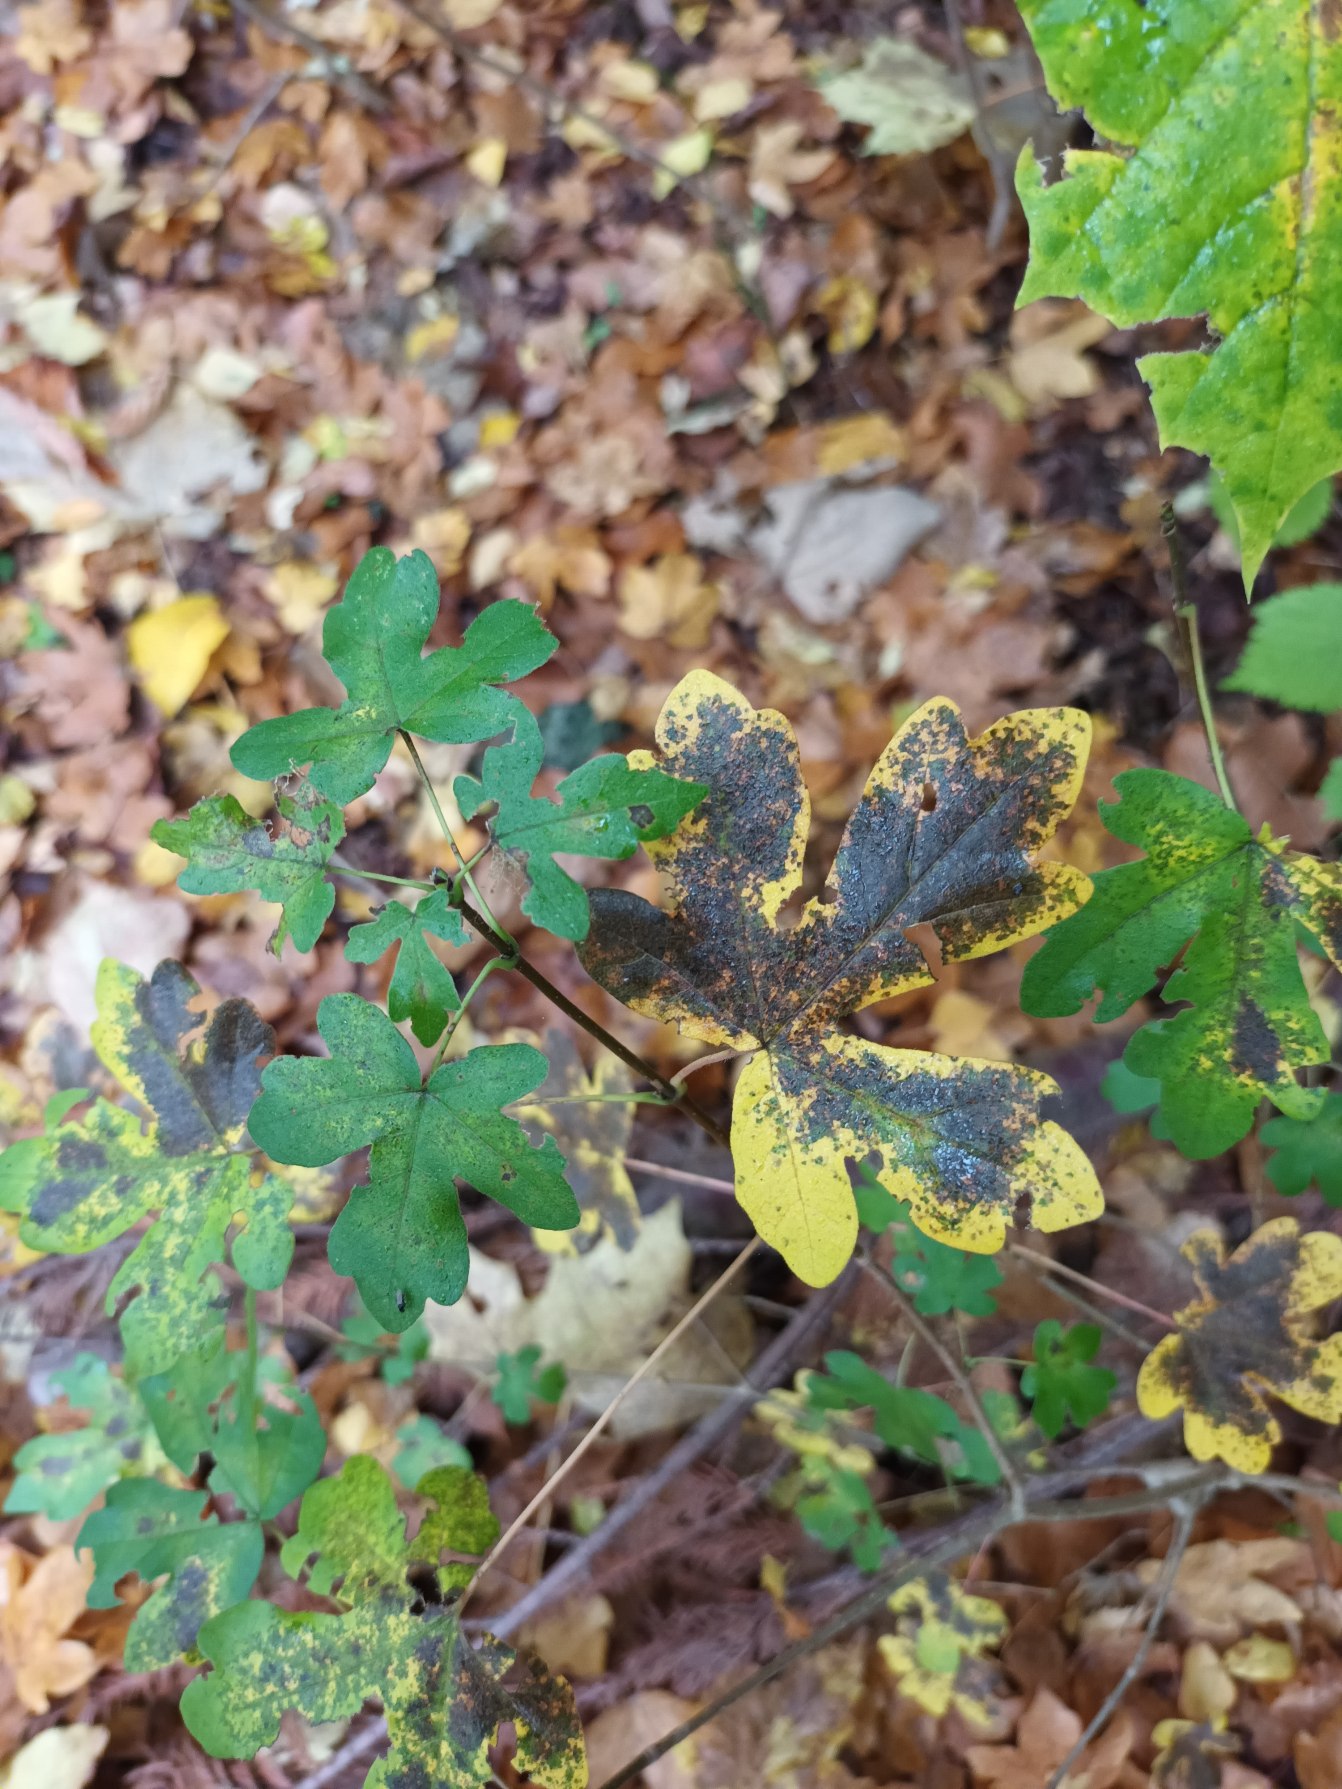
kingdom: Plantae
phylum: Tracheophyta
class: Magnoliopsida
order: Sapindales
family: Sapindaceae
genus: Acer
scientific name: Acer campestre
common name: Navr
